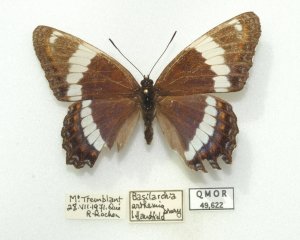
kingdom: Animalia
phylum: Arthropoda
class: Insecta
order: Lepidoptera
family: Nymphalidae
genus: Limenitis
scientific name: Limenitis arthemis
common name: Red-spotted Admiral
